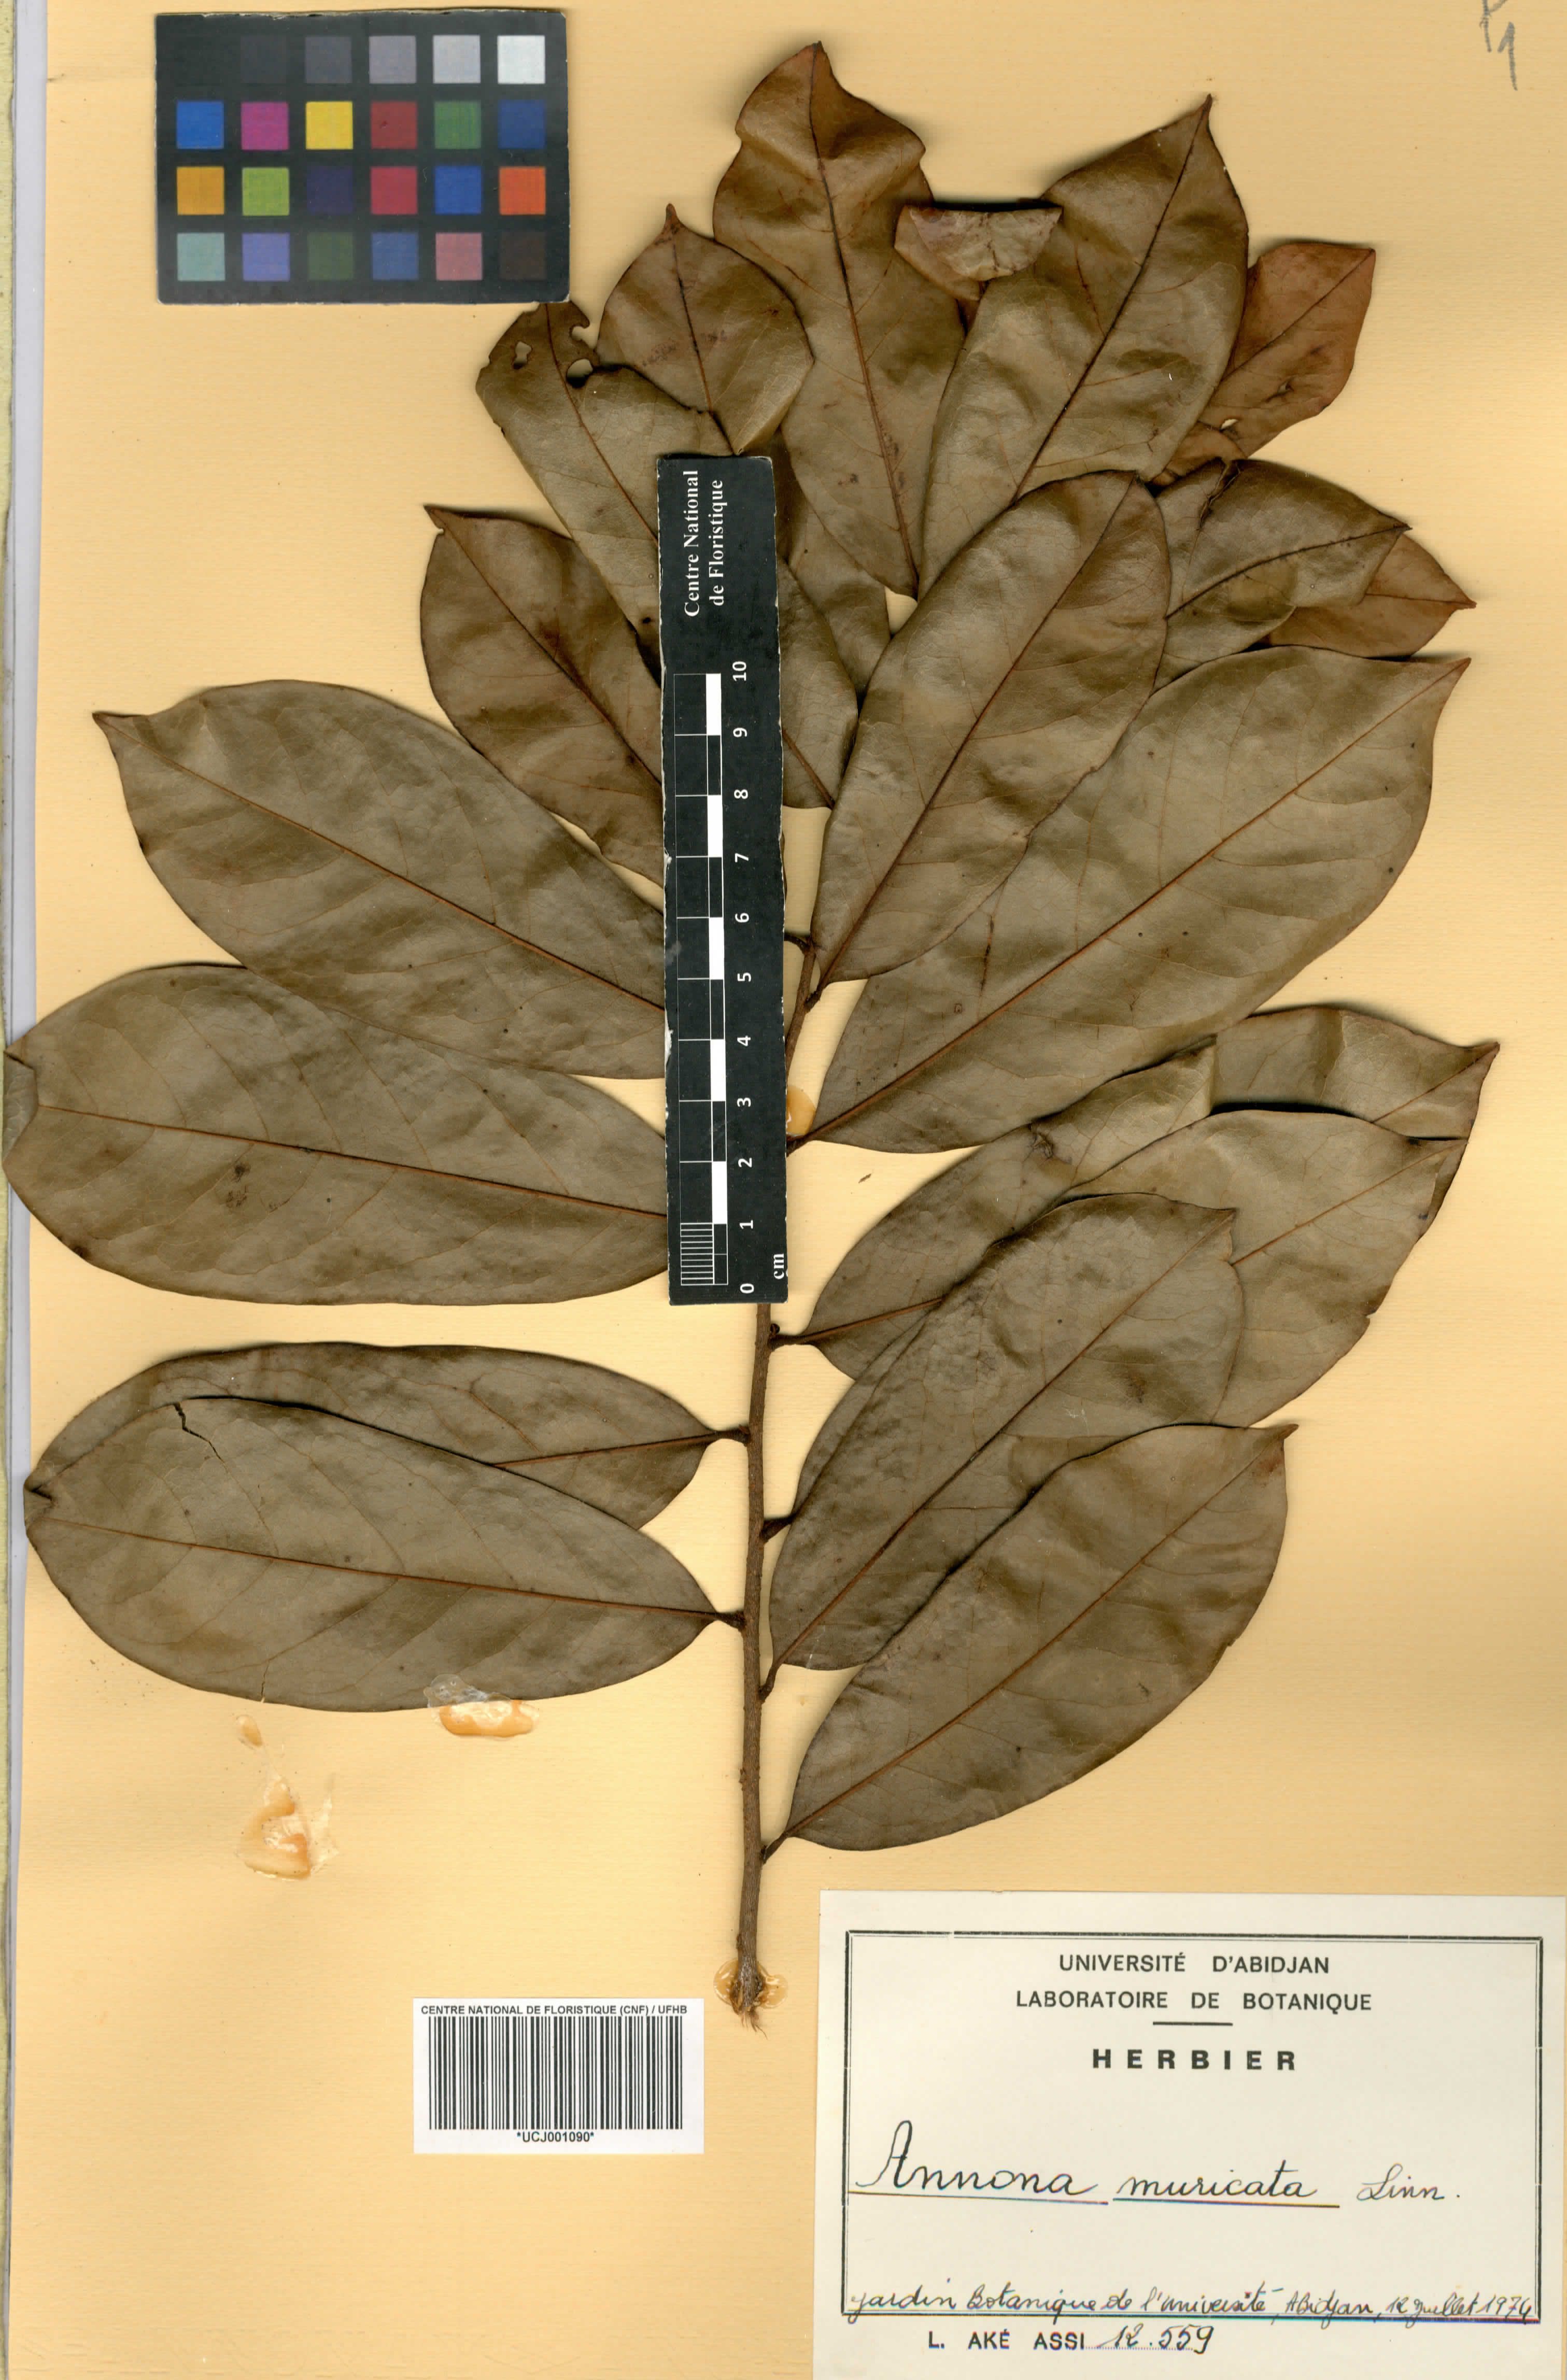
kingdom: Plantae
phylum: Tracheophyta
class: Magnoliopsida
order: Magnoliales
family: Annonaceae
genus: Annona
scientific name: Annona muricata
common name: Soursop
